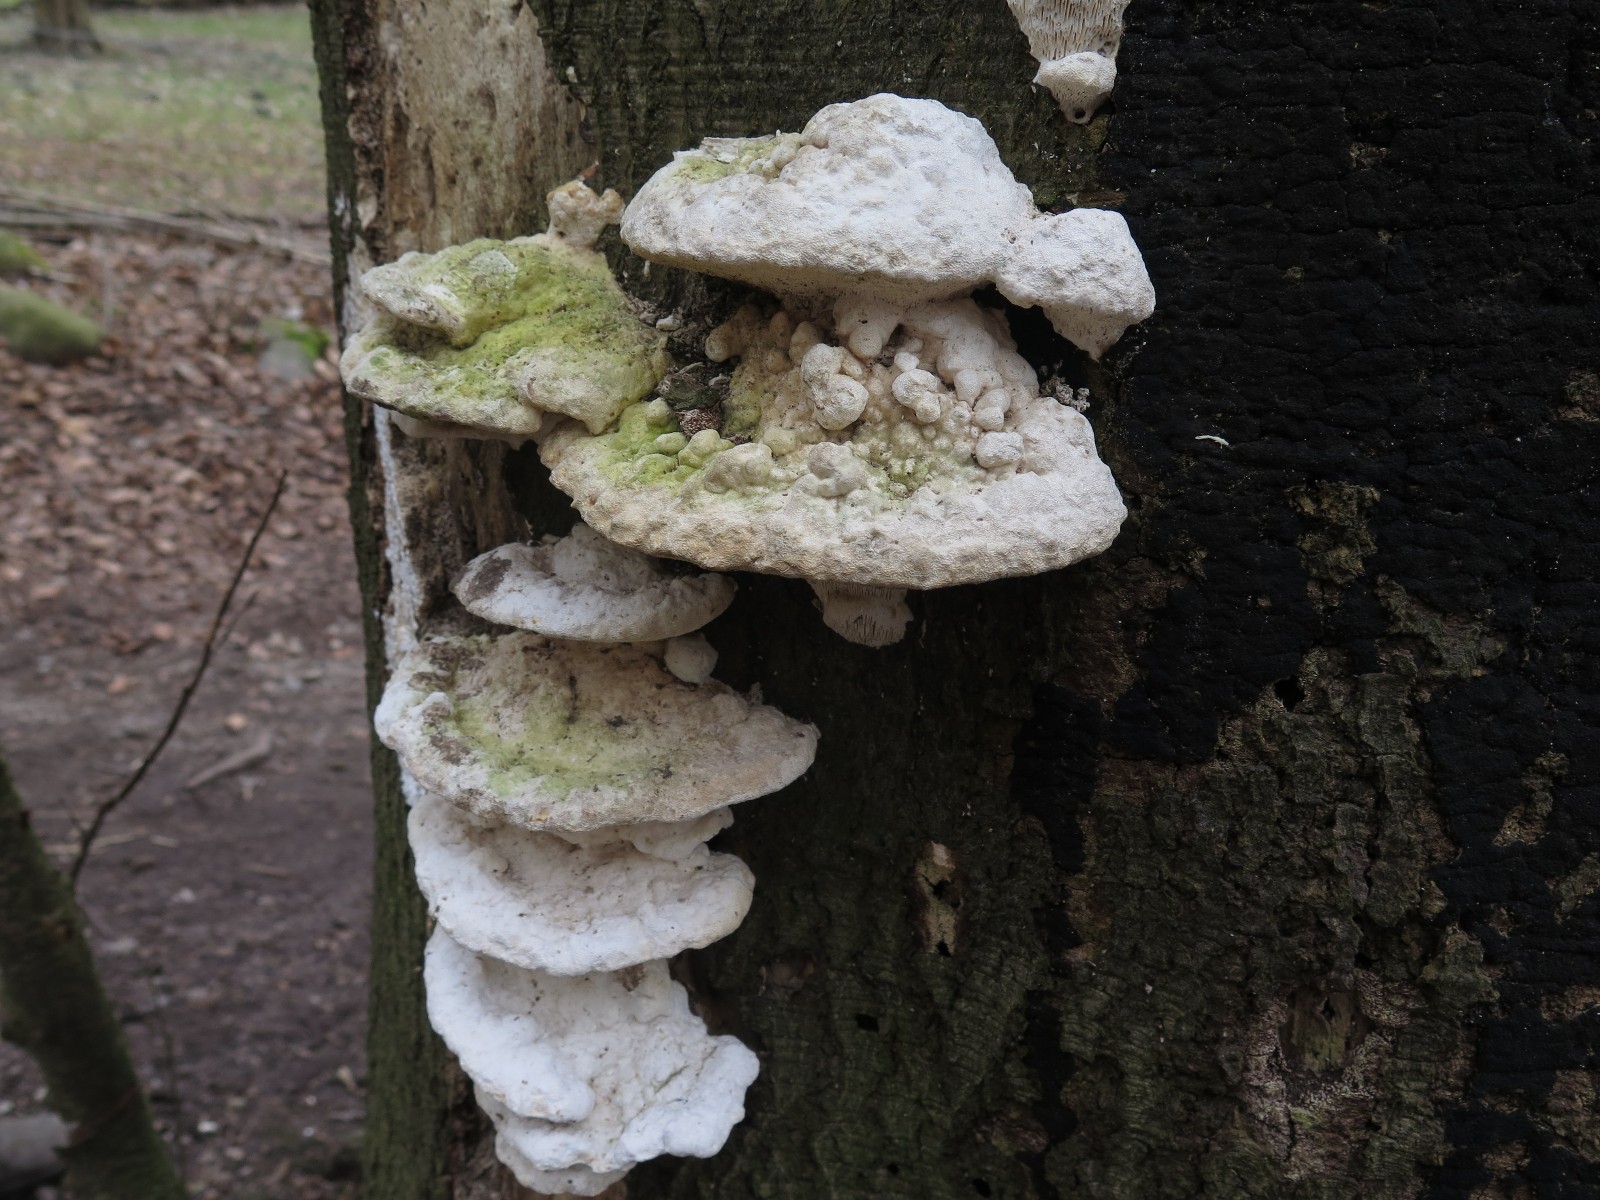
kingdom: Fungi
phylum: Basidiomycota
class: Agaricomycetes
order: Polyporales
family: Polyporaceae
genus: Trametes
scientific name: Trametes gibbosa
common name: puklet læderporesvamp
